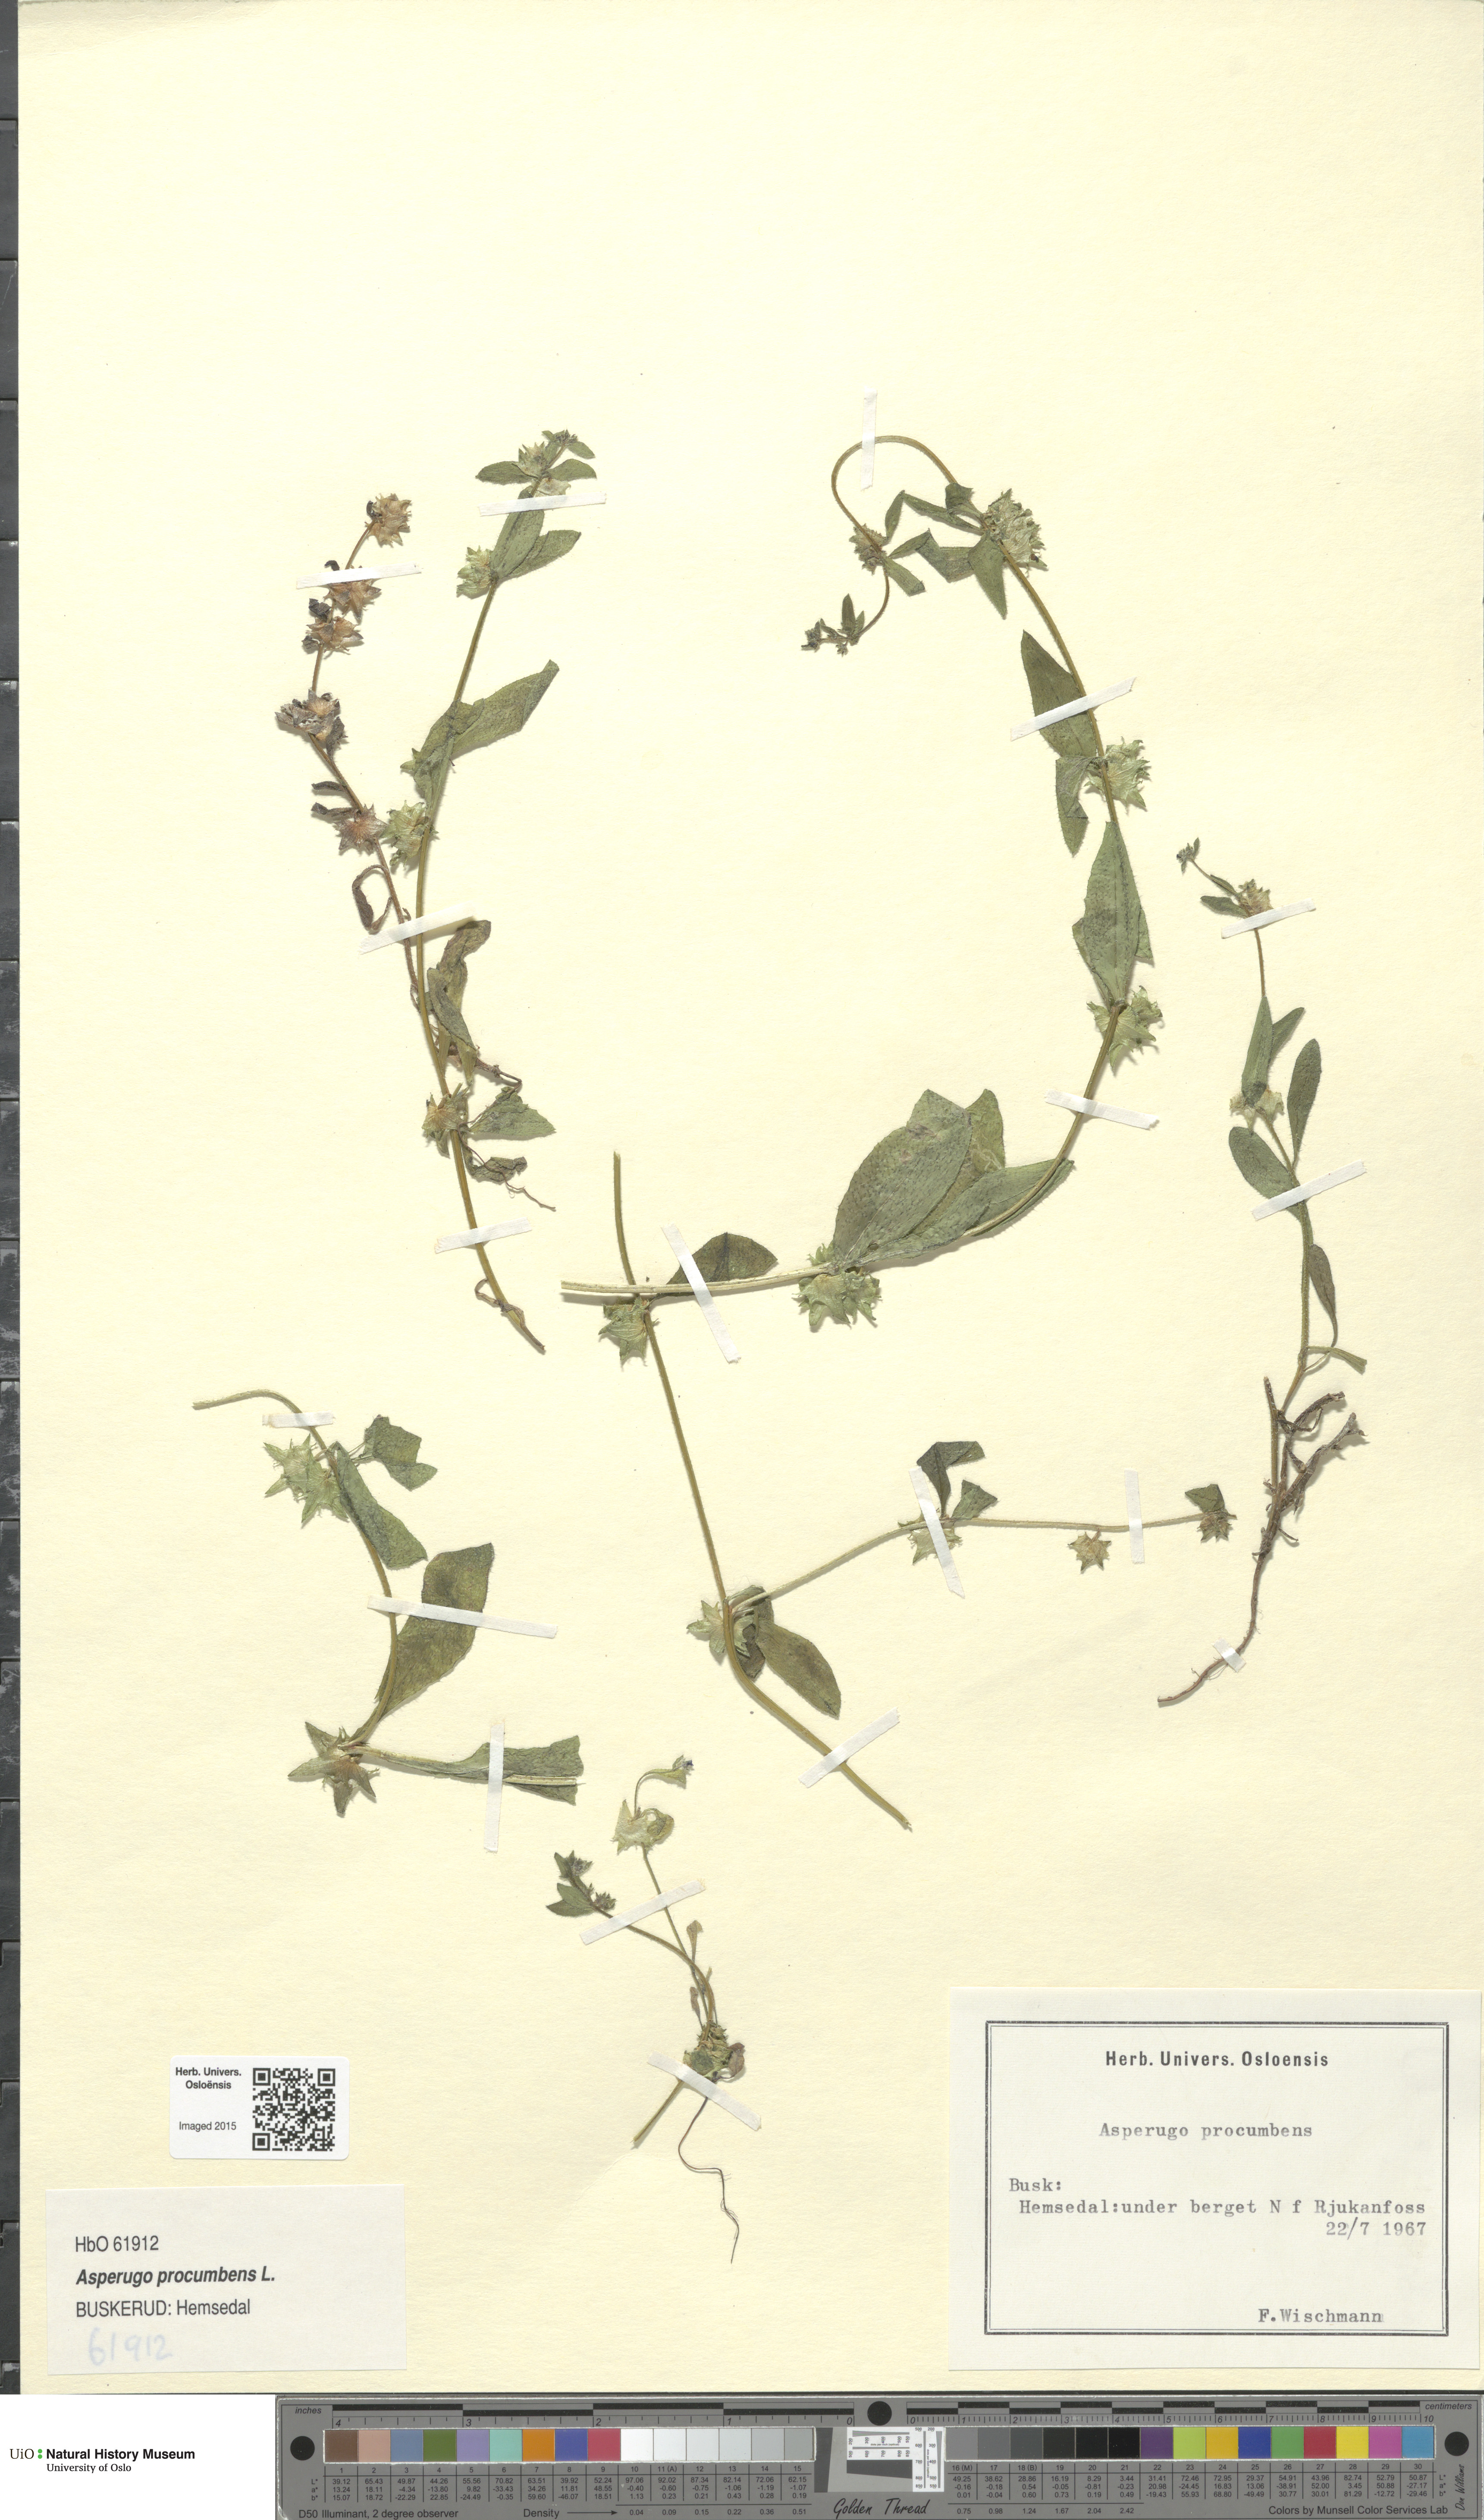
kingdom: Plantae
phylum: Tracheophyta
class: Magnoliopsida
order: Boraginales
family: Boraginaceae
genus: Asperugo
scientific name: Asperugo procumbens
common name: Madwort
